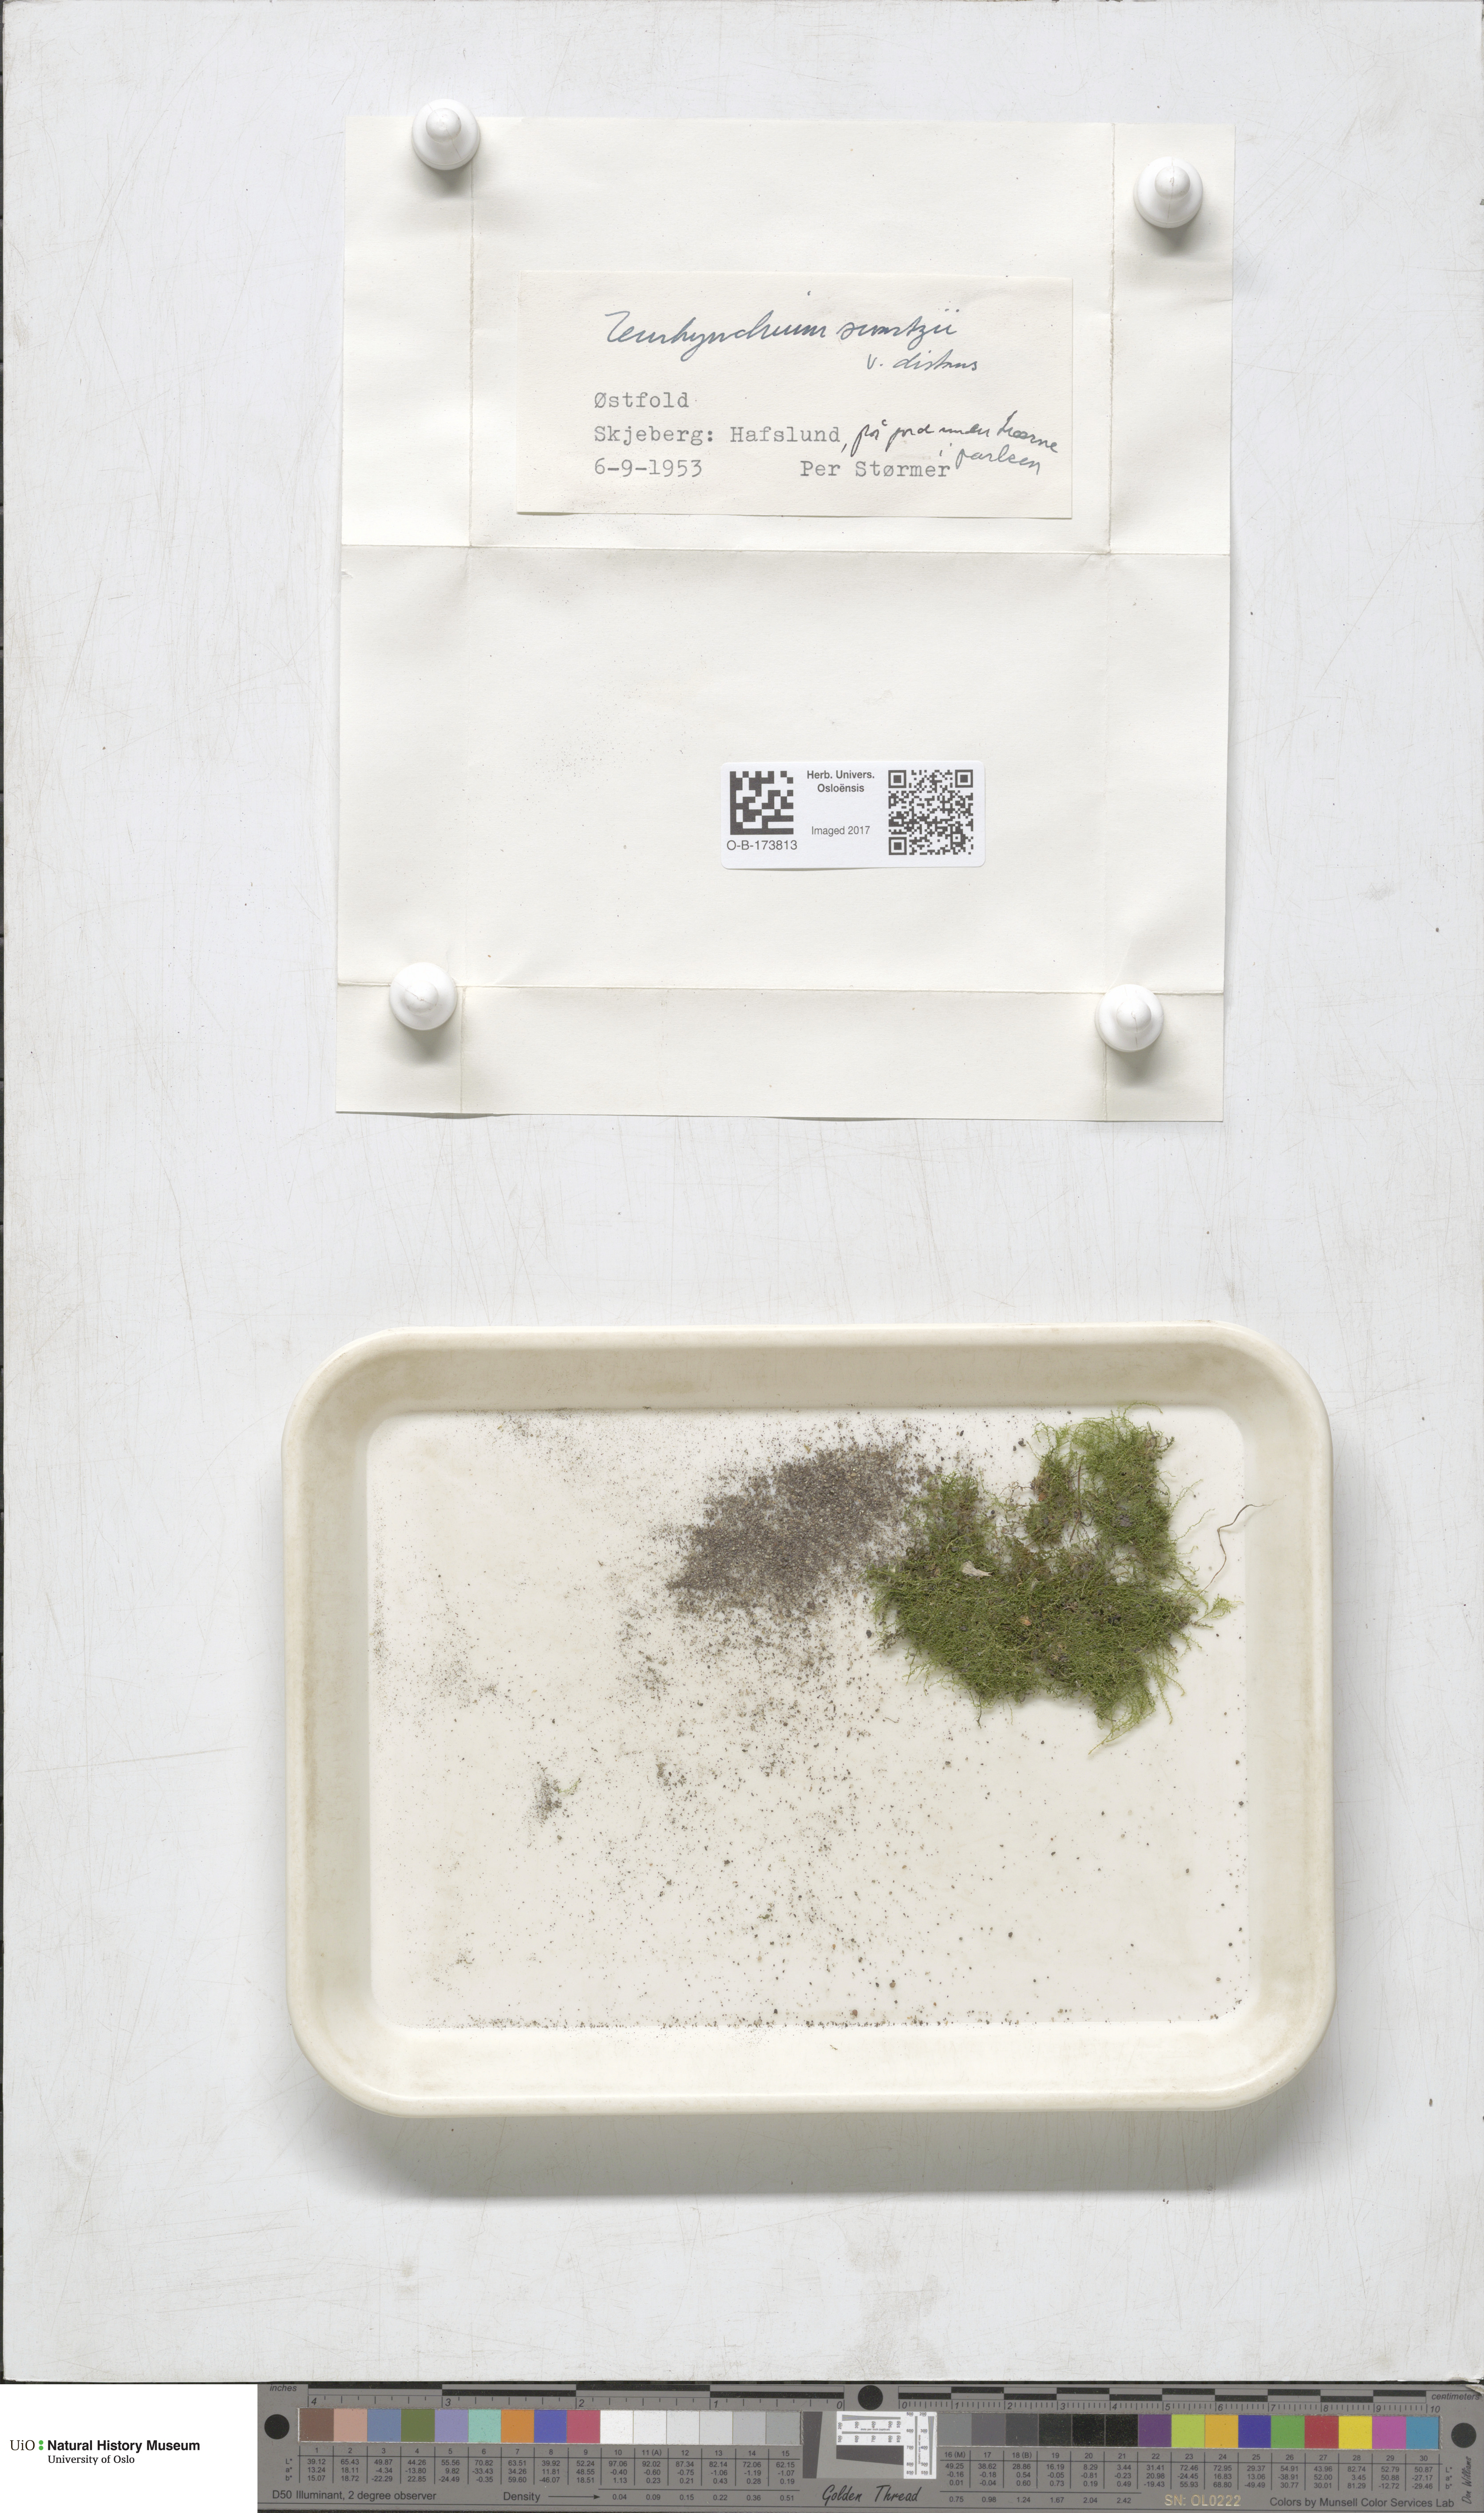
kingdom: Plantae
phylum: Bryophyta
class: Bryopsida
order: Hypnales
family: Brachytheciaceae
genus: Kindbergia
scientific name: Kindbergia praelonga
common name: Slender beaked moss
